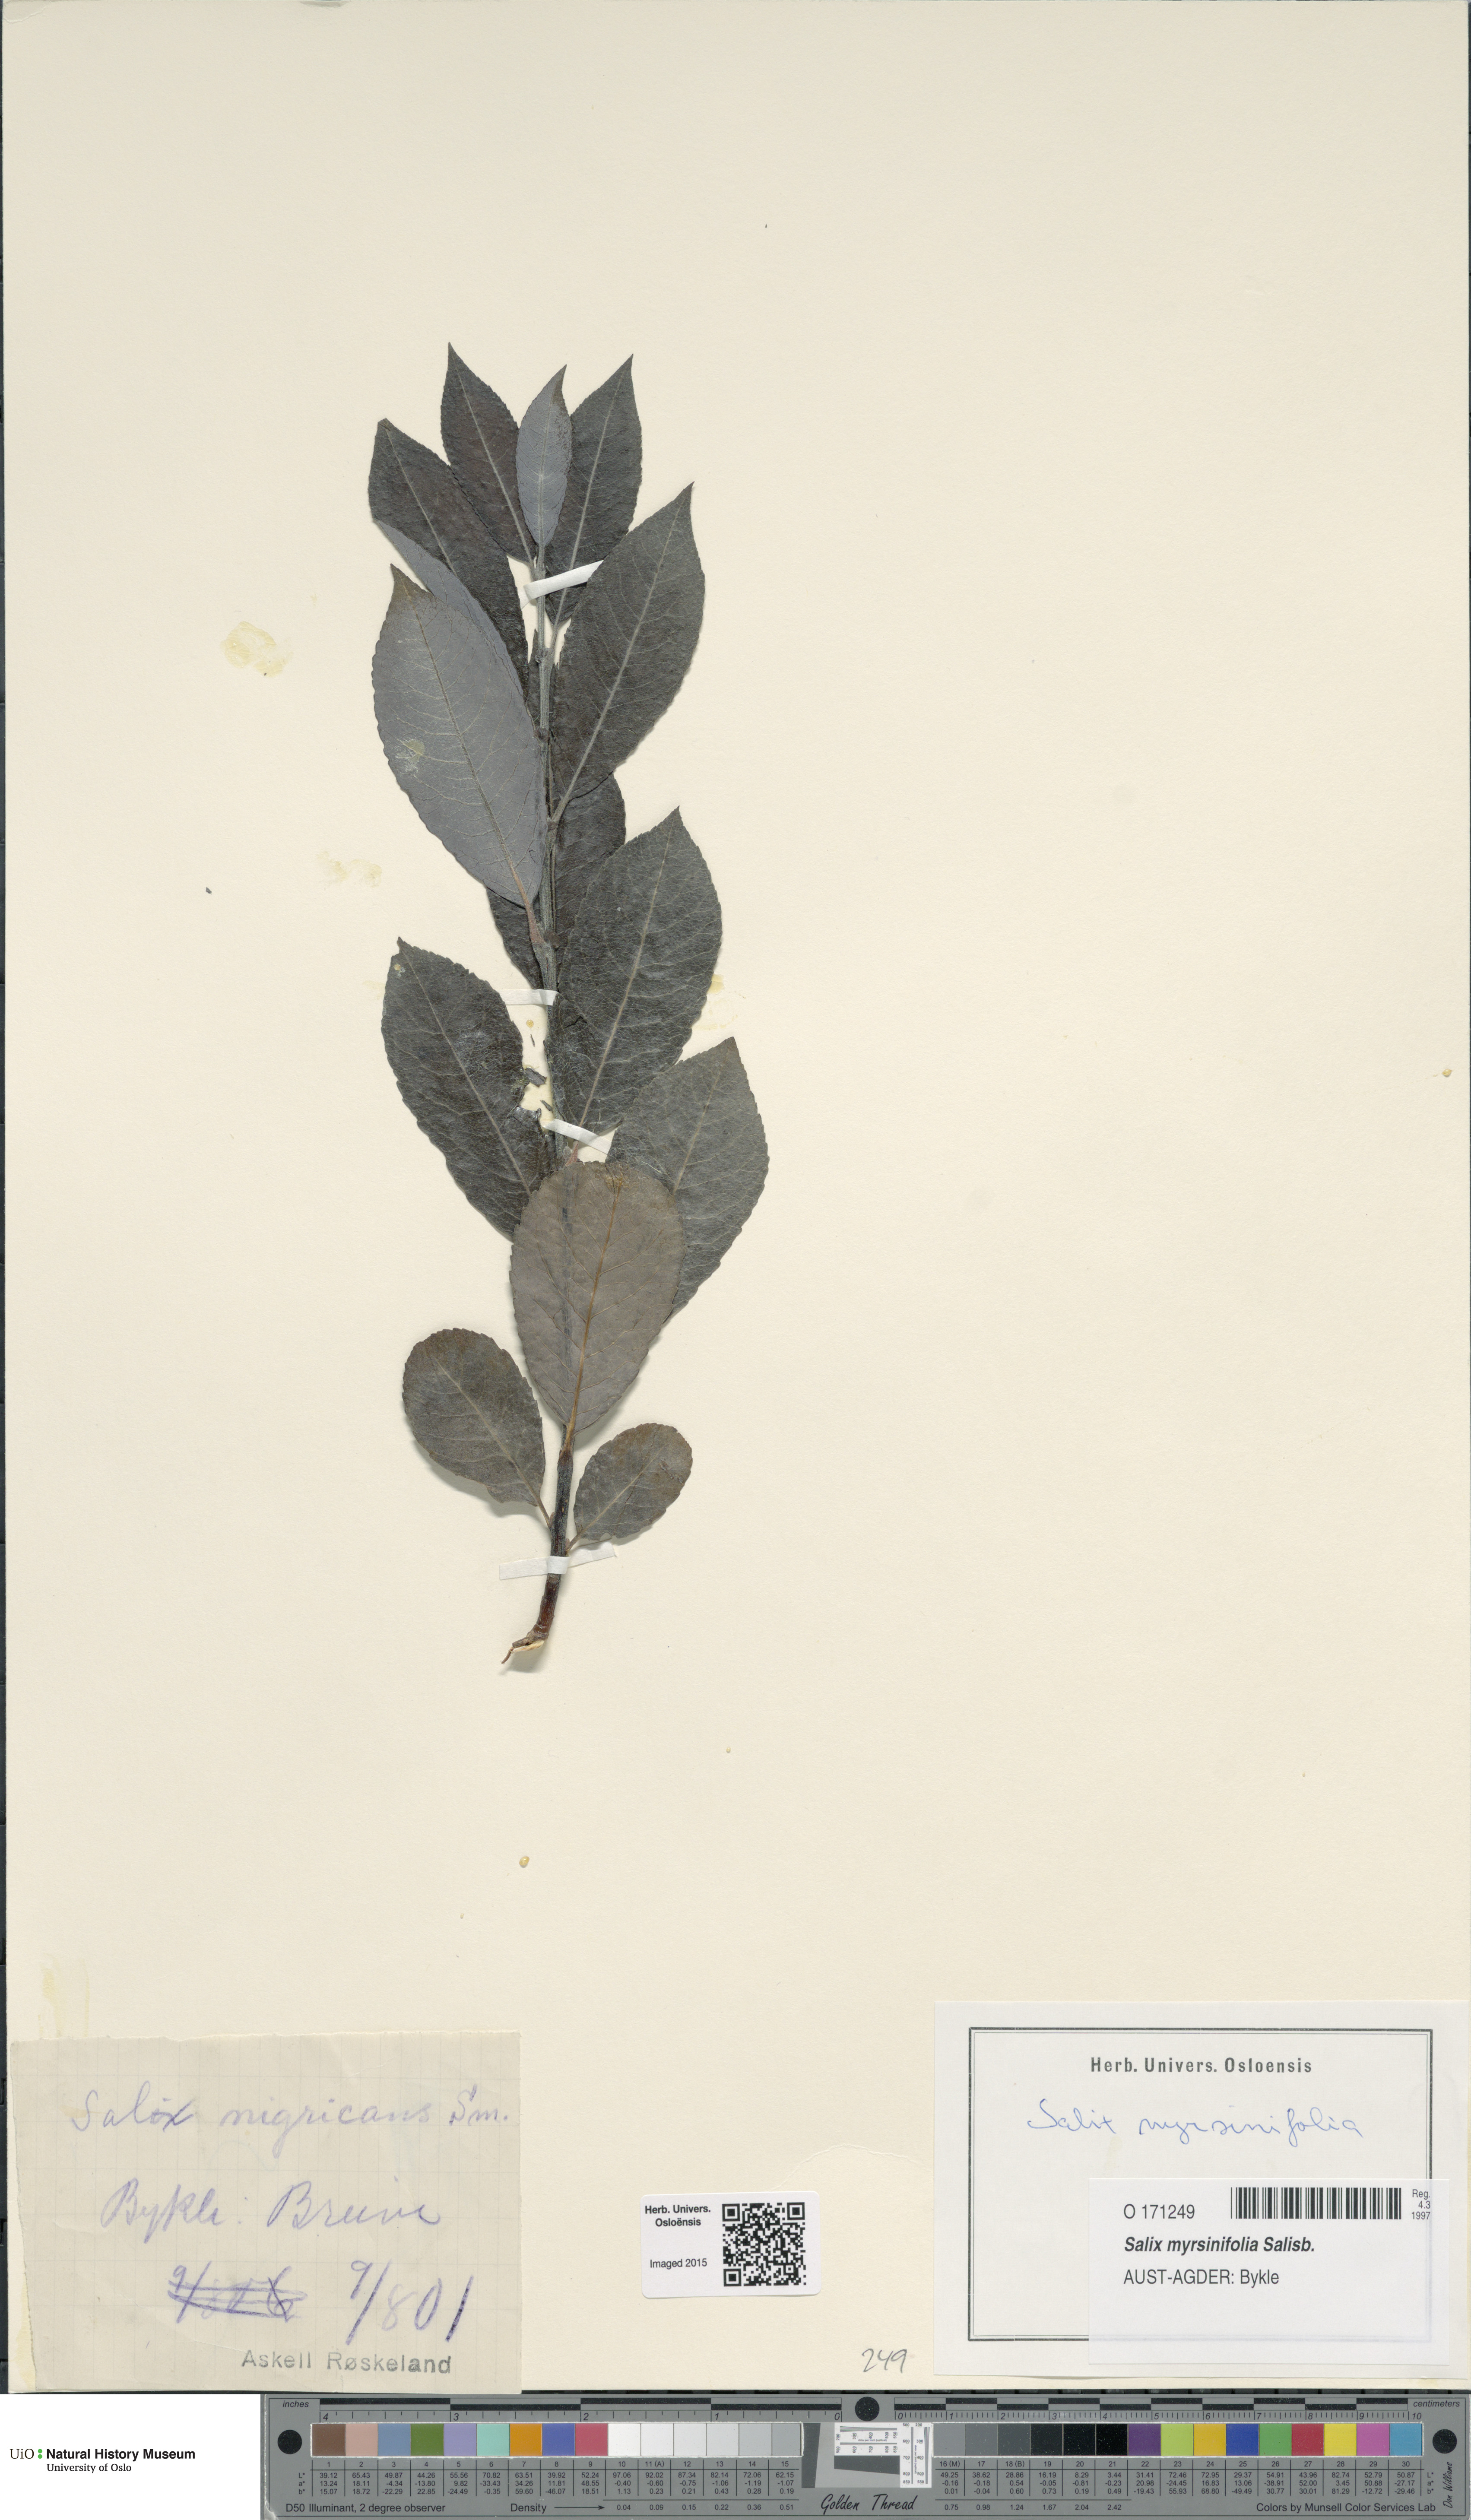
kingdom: Plantae
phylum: Tracheophyta
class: Magnoliopsida
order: Malpighiales
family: Salicaceae
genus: Salix
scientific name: Salix myrsinifolia
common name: Dark-leaved willow
